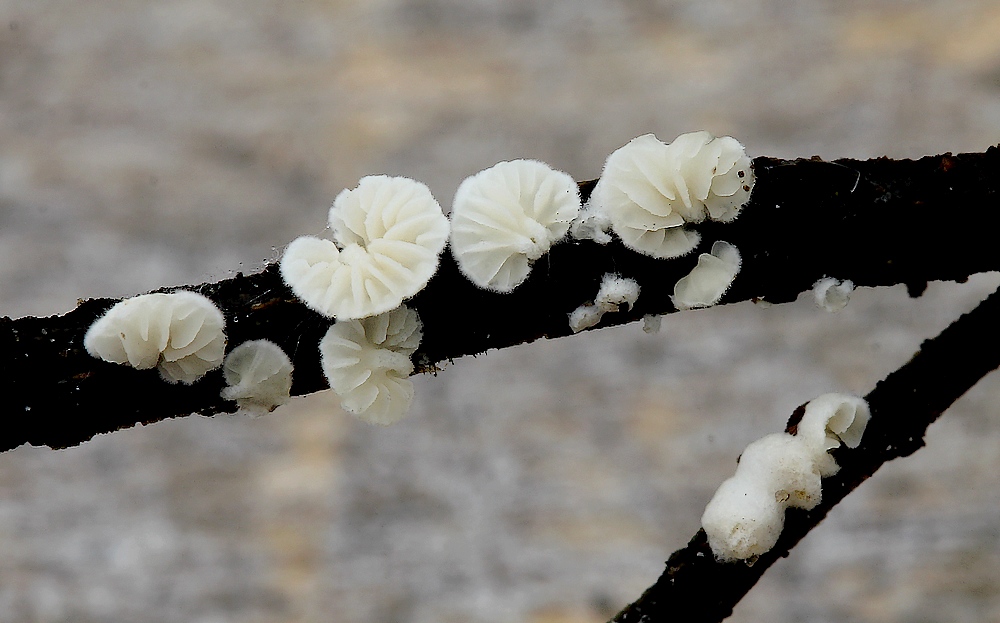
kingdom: Fungi
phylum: Basidiomycota
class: Agaricomycetes
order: Agaricales
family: Crepidotaceae
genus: Crepidotus
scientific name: Crepidotus epibryus
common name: førne-muslingesvamp
